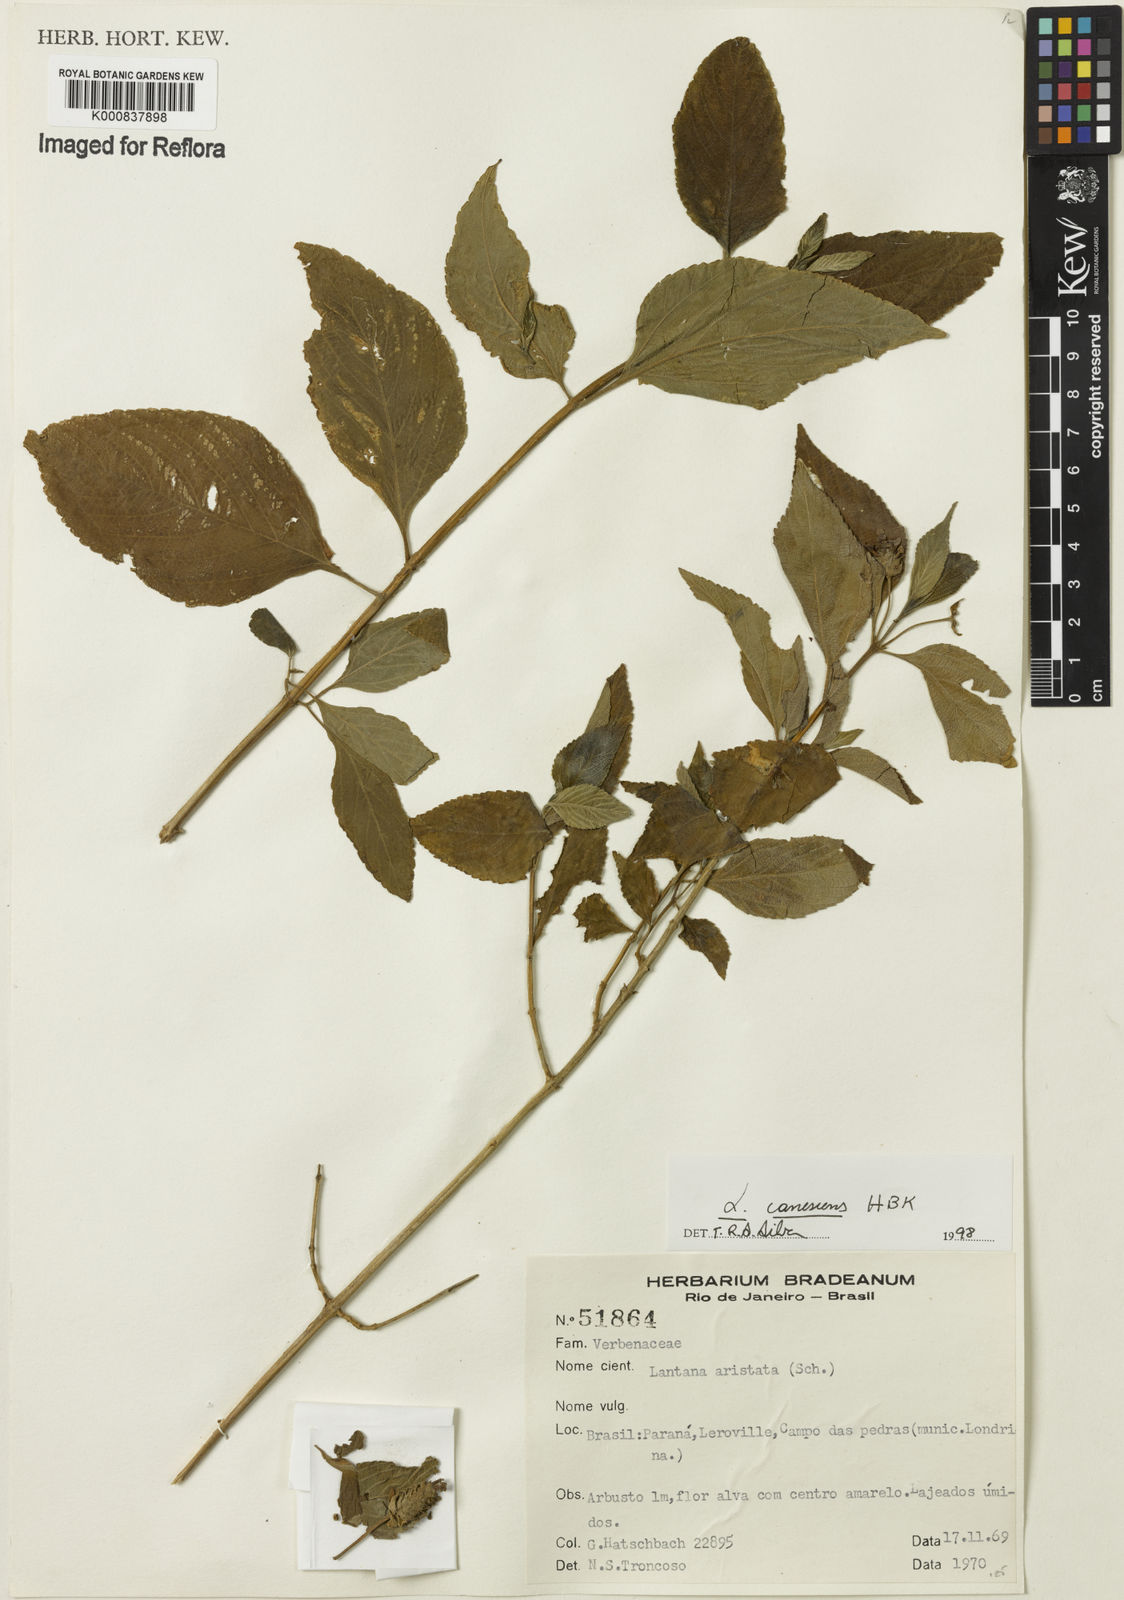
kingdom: Plantae
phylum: Tracheophyta
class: Magnoliopsida
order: Lamiales
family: Verbenaceae
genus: Lantana
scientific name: Lantana canescens
